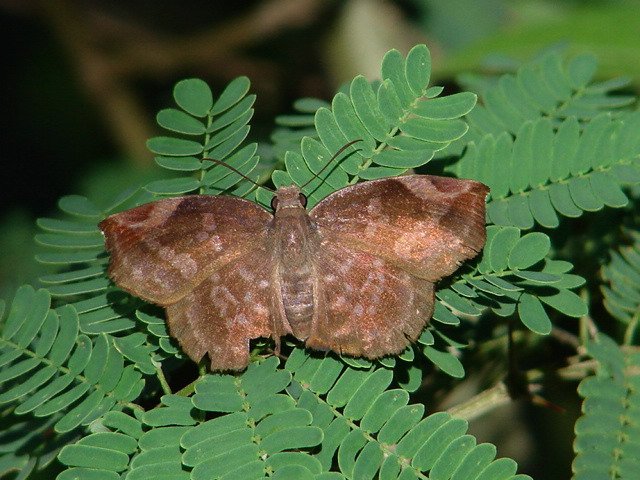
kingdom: Animalia
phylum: Arthropoda
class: Insecta
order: Lepidoptera
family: Hesperiidae
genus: Achlyodes
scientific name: Achlyodes thraso
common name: Sickle-winged Skipper
